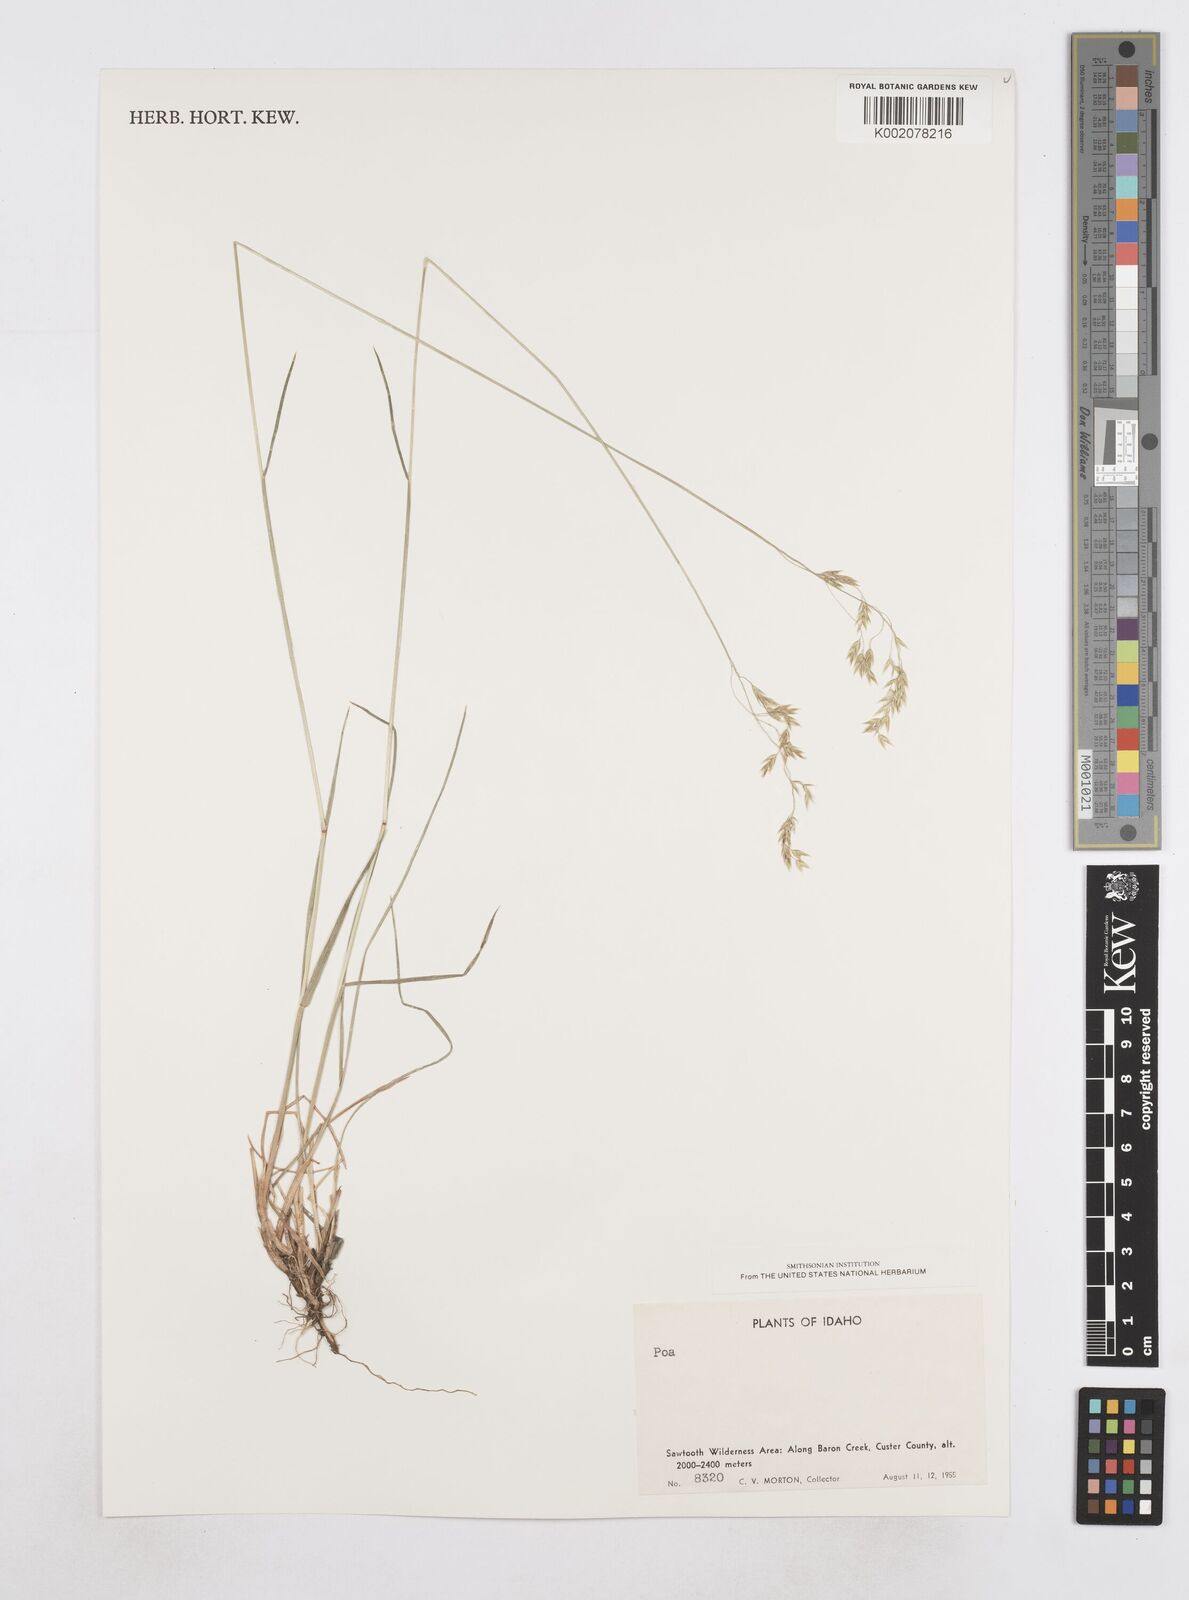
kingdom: Plantae
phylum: Tracheophyta
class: Liliopsida
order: Poales
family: Poaceae
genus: Poa
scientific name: Poa
